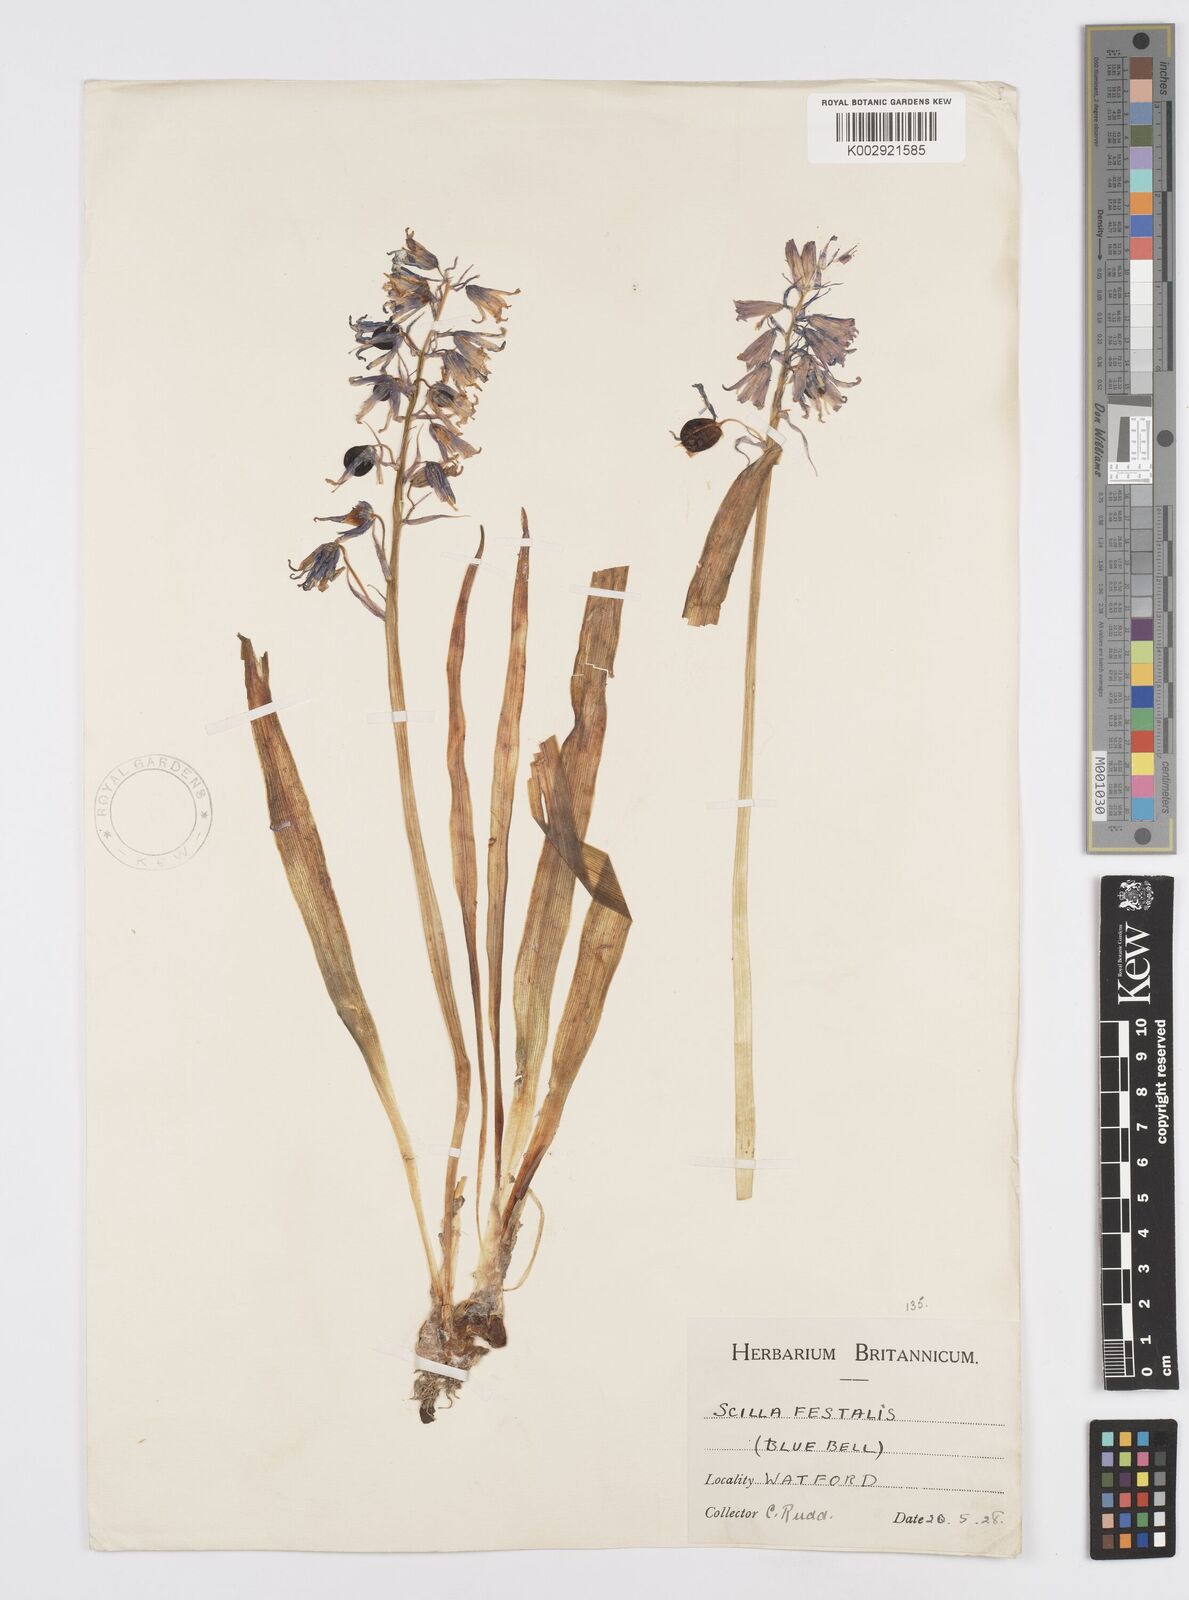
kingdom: Plantae
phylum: Tracheophyta
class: Liliopsida
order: Asparagales
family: Asparagaceae
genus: Hyacinthoides
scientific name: Hyacinthoides non-scripta
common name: Bluebell
